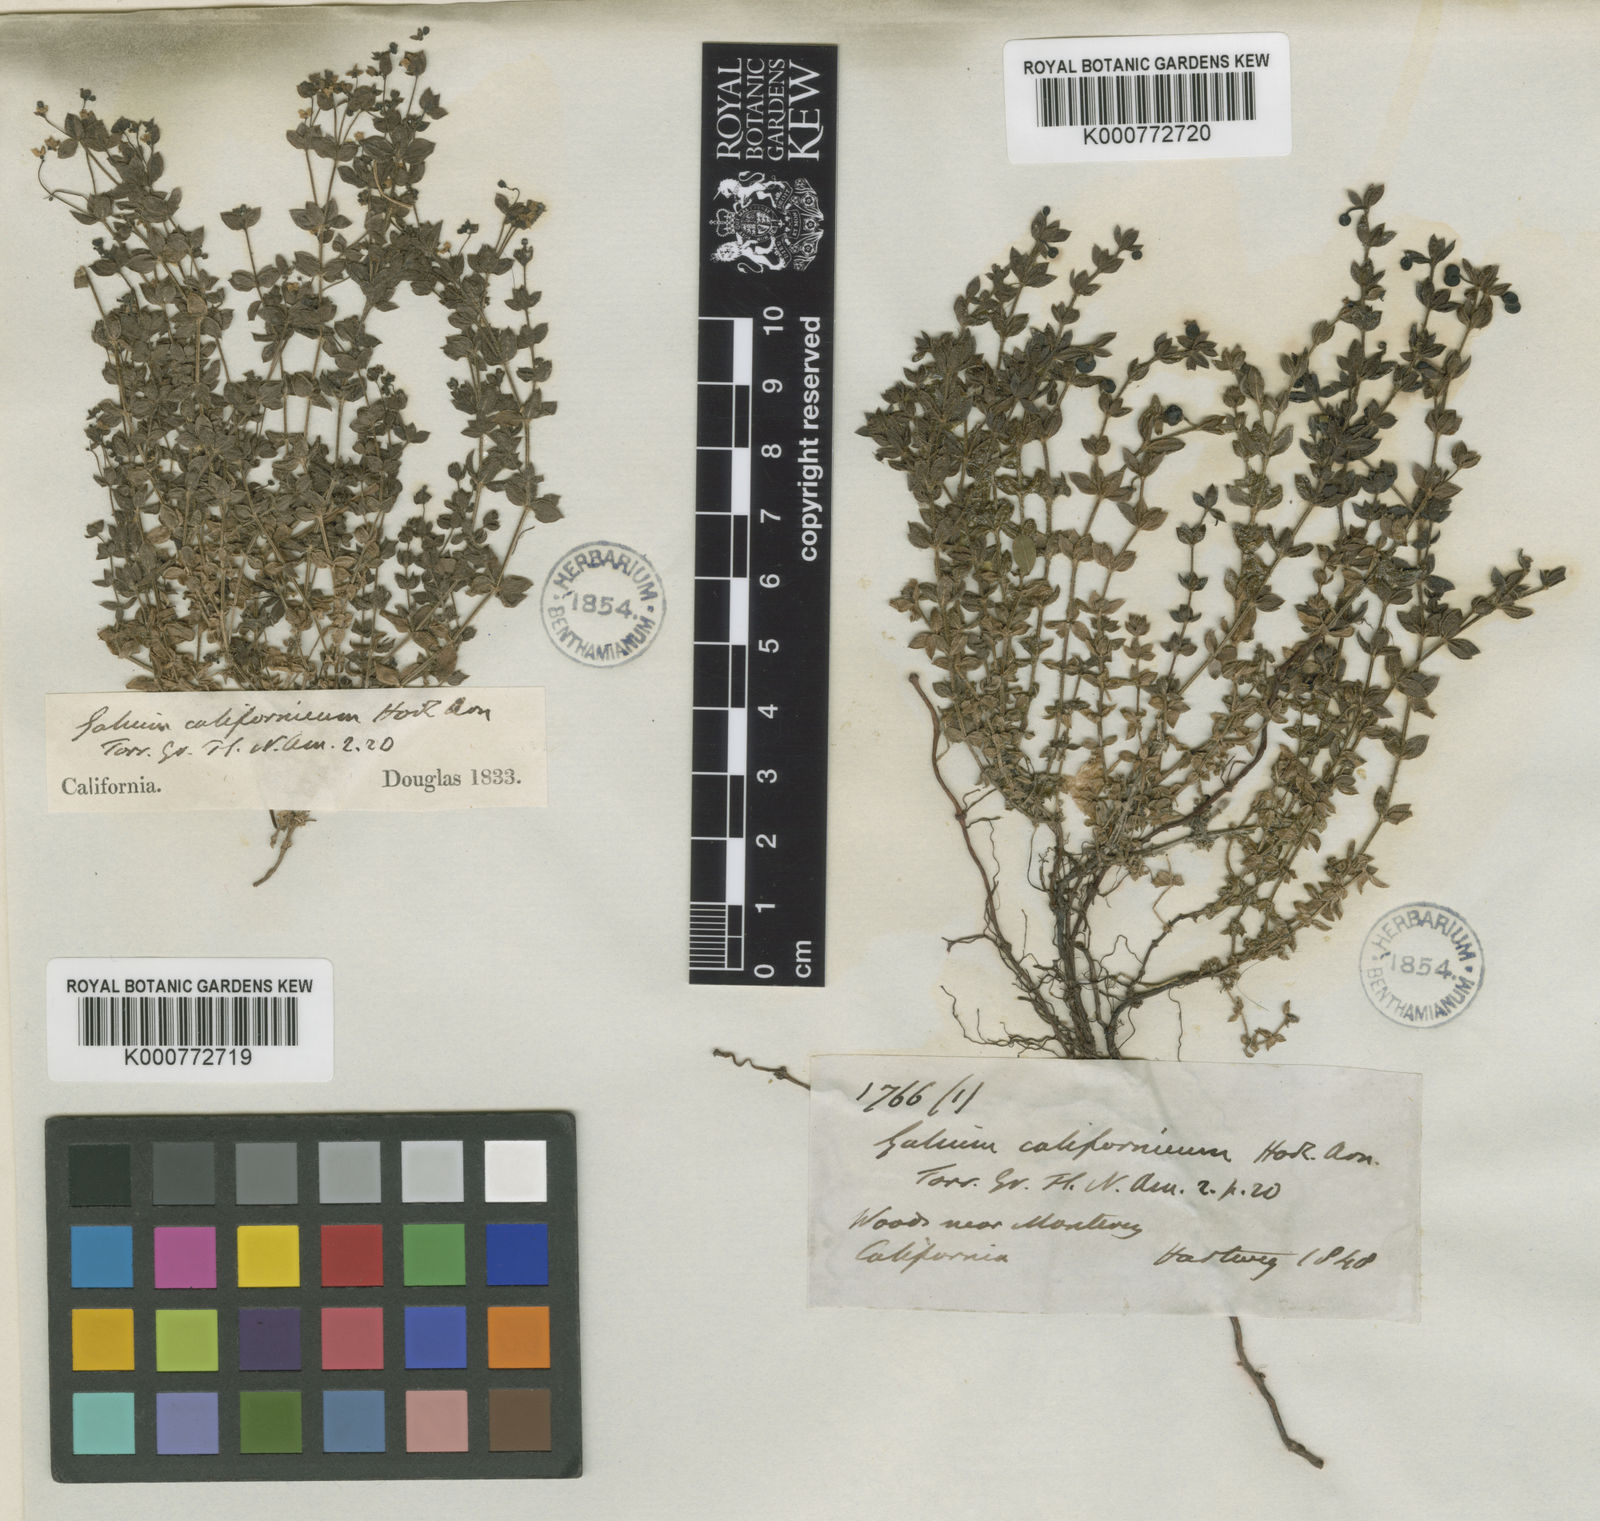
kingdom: Plantae
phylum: Tracheophyta
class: Magnoliopsida
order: Gentianales
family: Rubiaceae
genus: Galium
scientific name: Galium californicum
